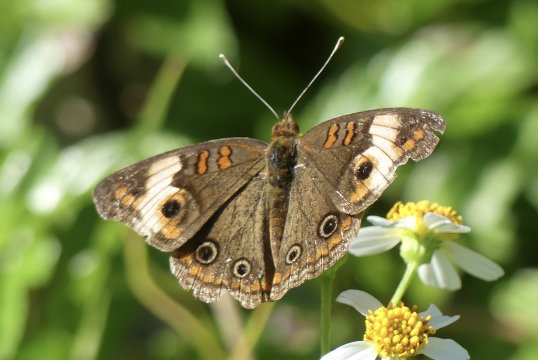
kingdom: Animalia
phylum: Arthropoda
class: Insecta
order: Lepidoptera
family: Nymphalidae
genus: Junonia
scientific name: Junonia evarete
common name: Mangrove Buckeye
